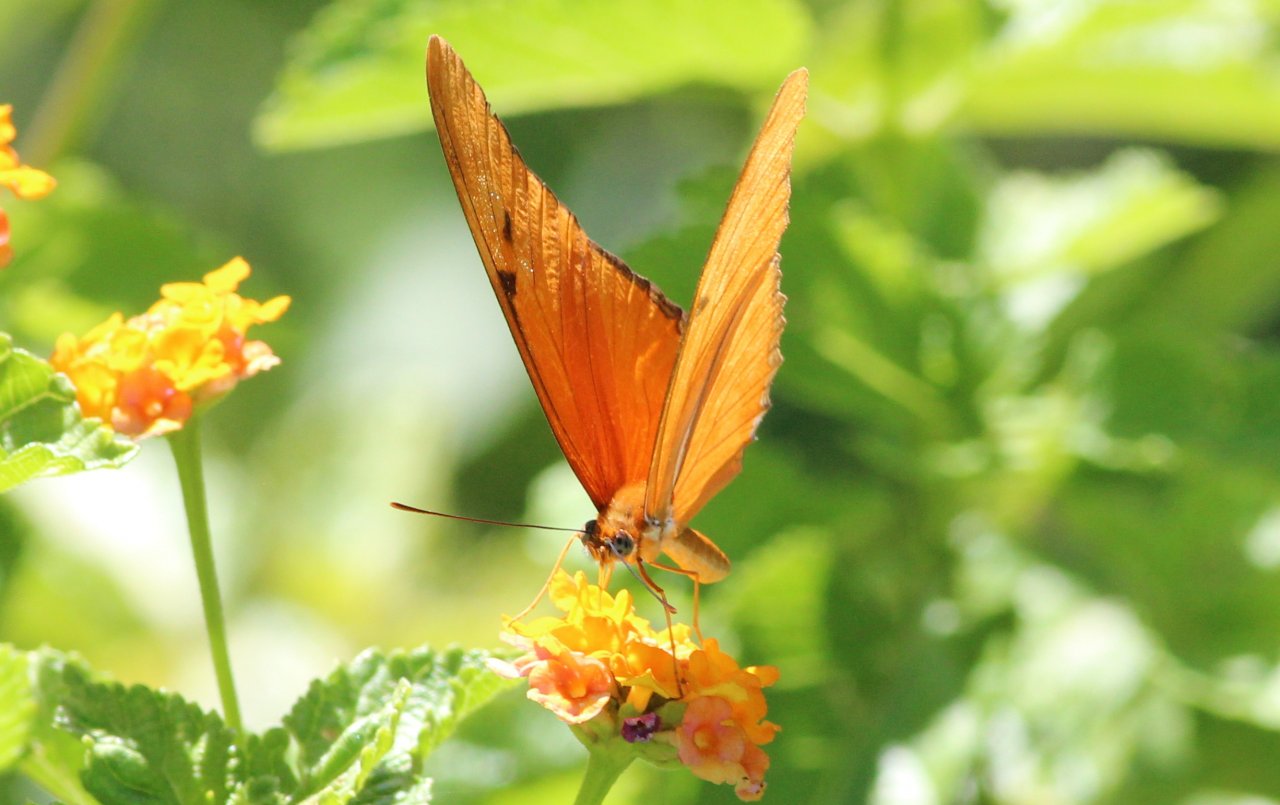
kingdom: Animalia
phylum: Arthropoda
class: Insecta
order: Lepidoptera
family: Nymphalidae
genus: Dryas
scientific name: Dryas iulia
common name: Julia
